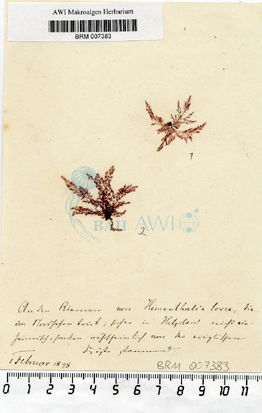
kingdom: Plantae
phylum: Rhodophyta
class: Florideophyceae
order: Ceramiales
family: Dasyaceae
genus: Heterosiphonia
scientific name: Heterosiphonia
